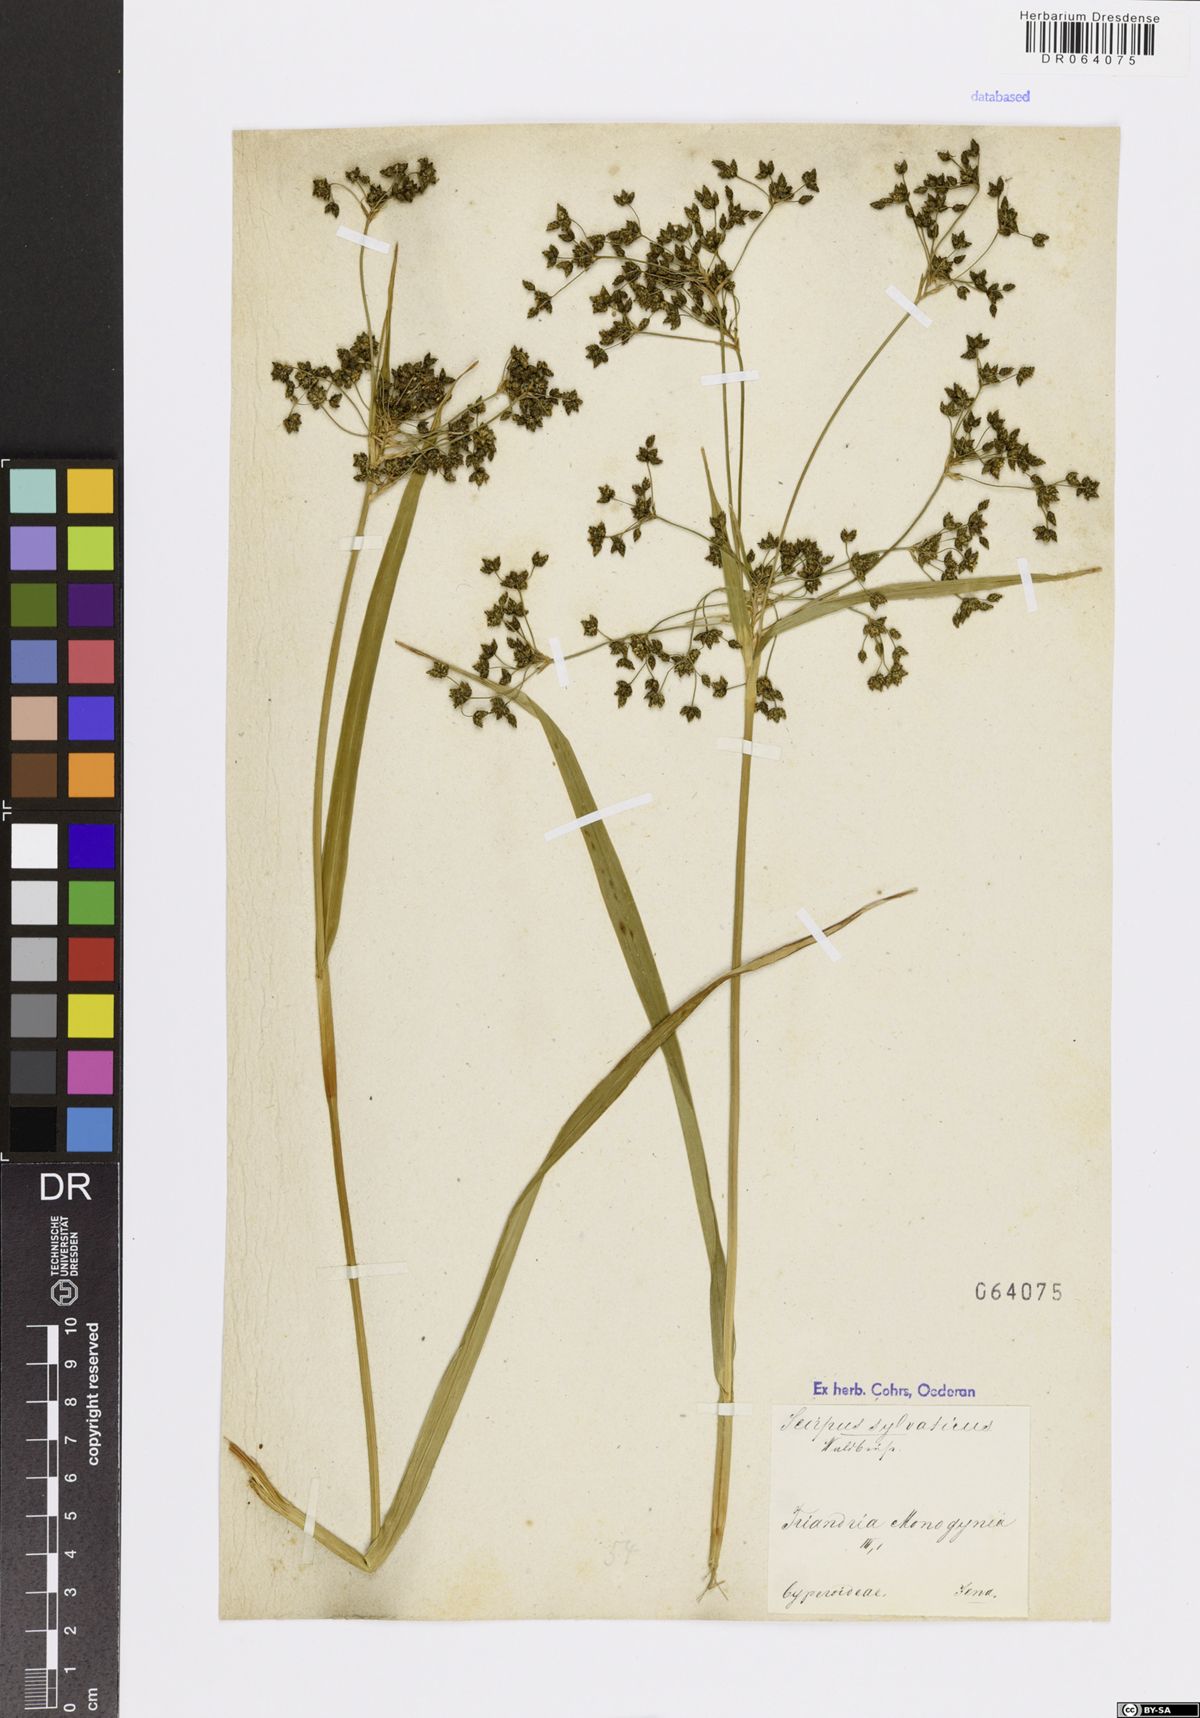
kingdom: Plantae
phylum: Tracheophyta
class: Liliopsida
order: Poales
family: Cyperaceae
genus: Scirpus
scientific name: Scirpus sylvaticus
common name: Wood club-rush
